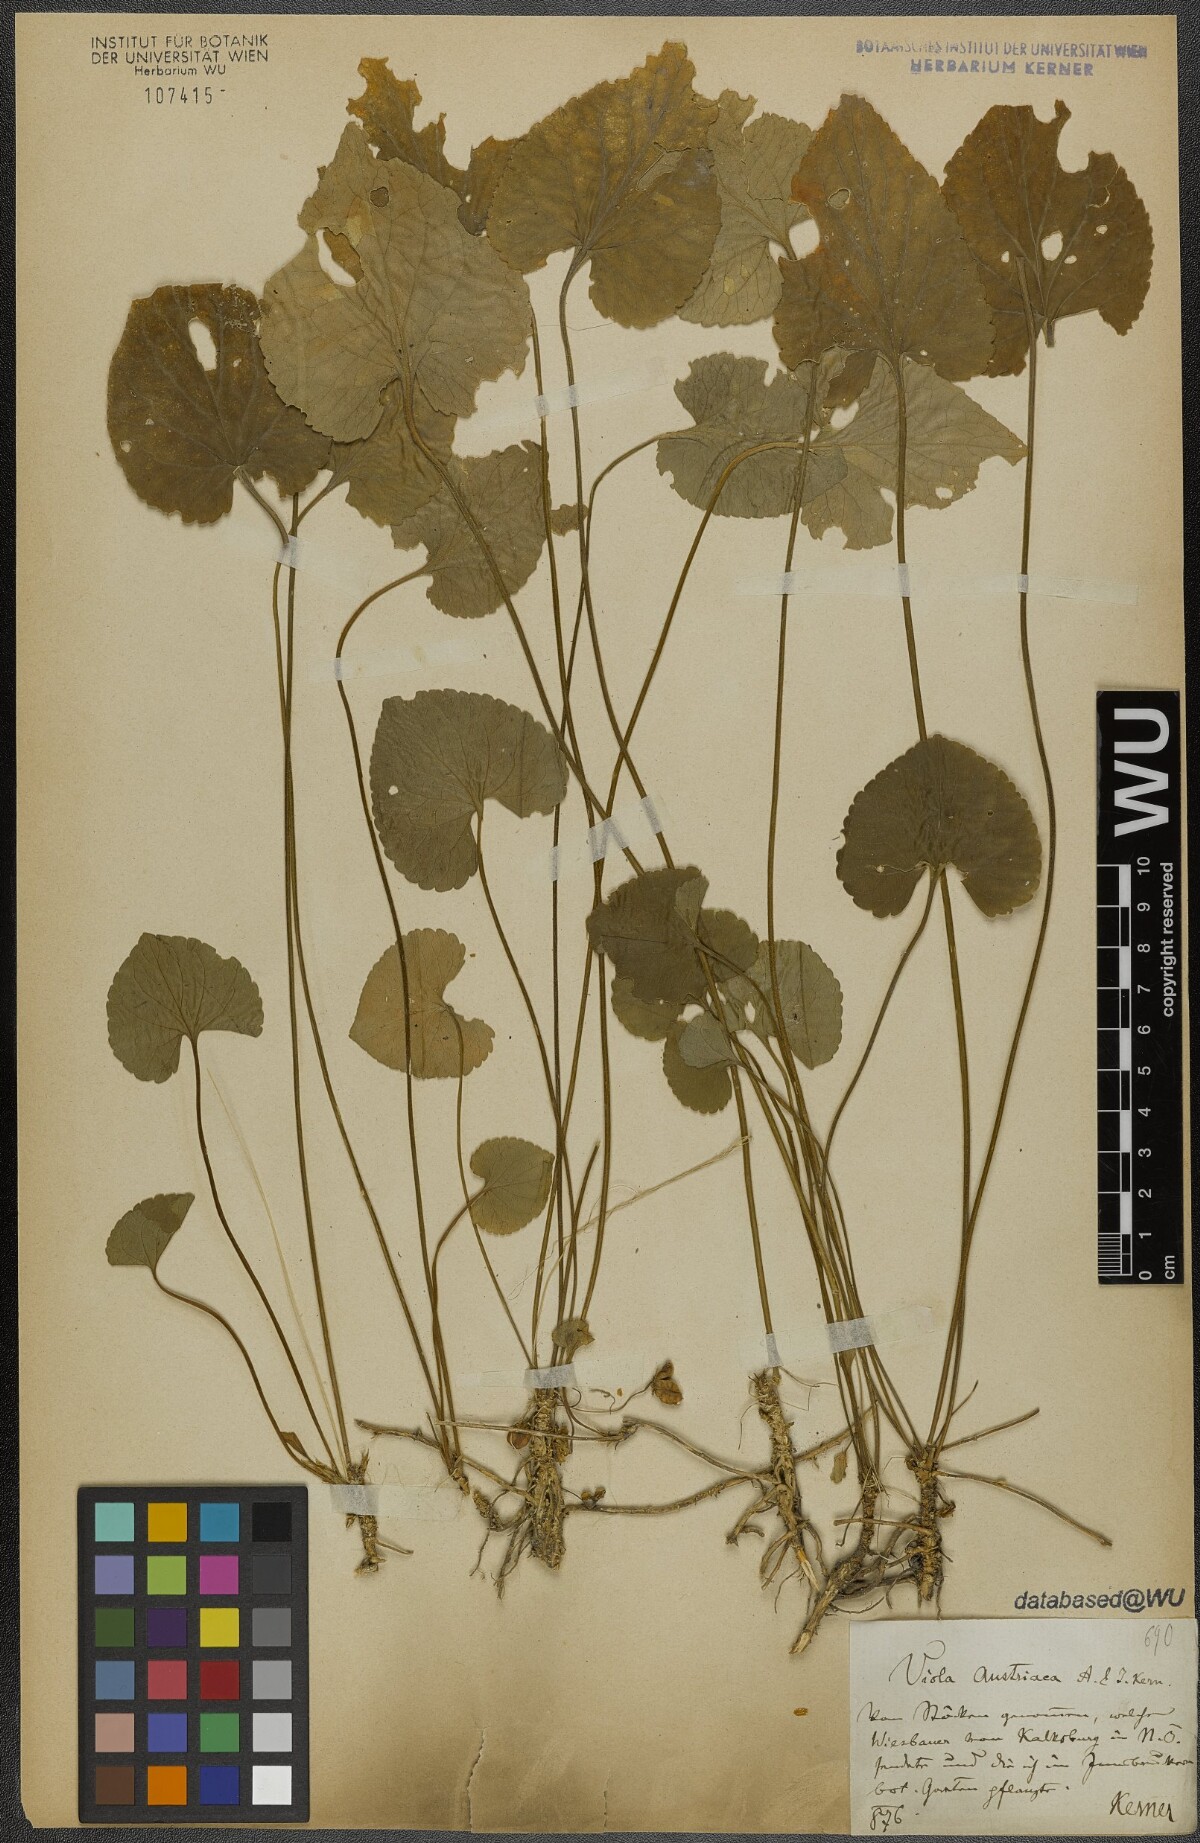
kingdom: Plantae
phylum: Tracheophyta
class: Magnoliopsida
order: Malpighiales
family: Violaceae
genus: Viola
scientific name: Viola suavis
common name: Russian violet
